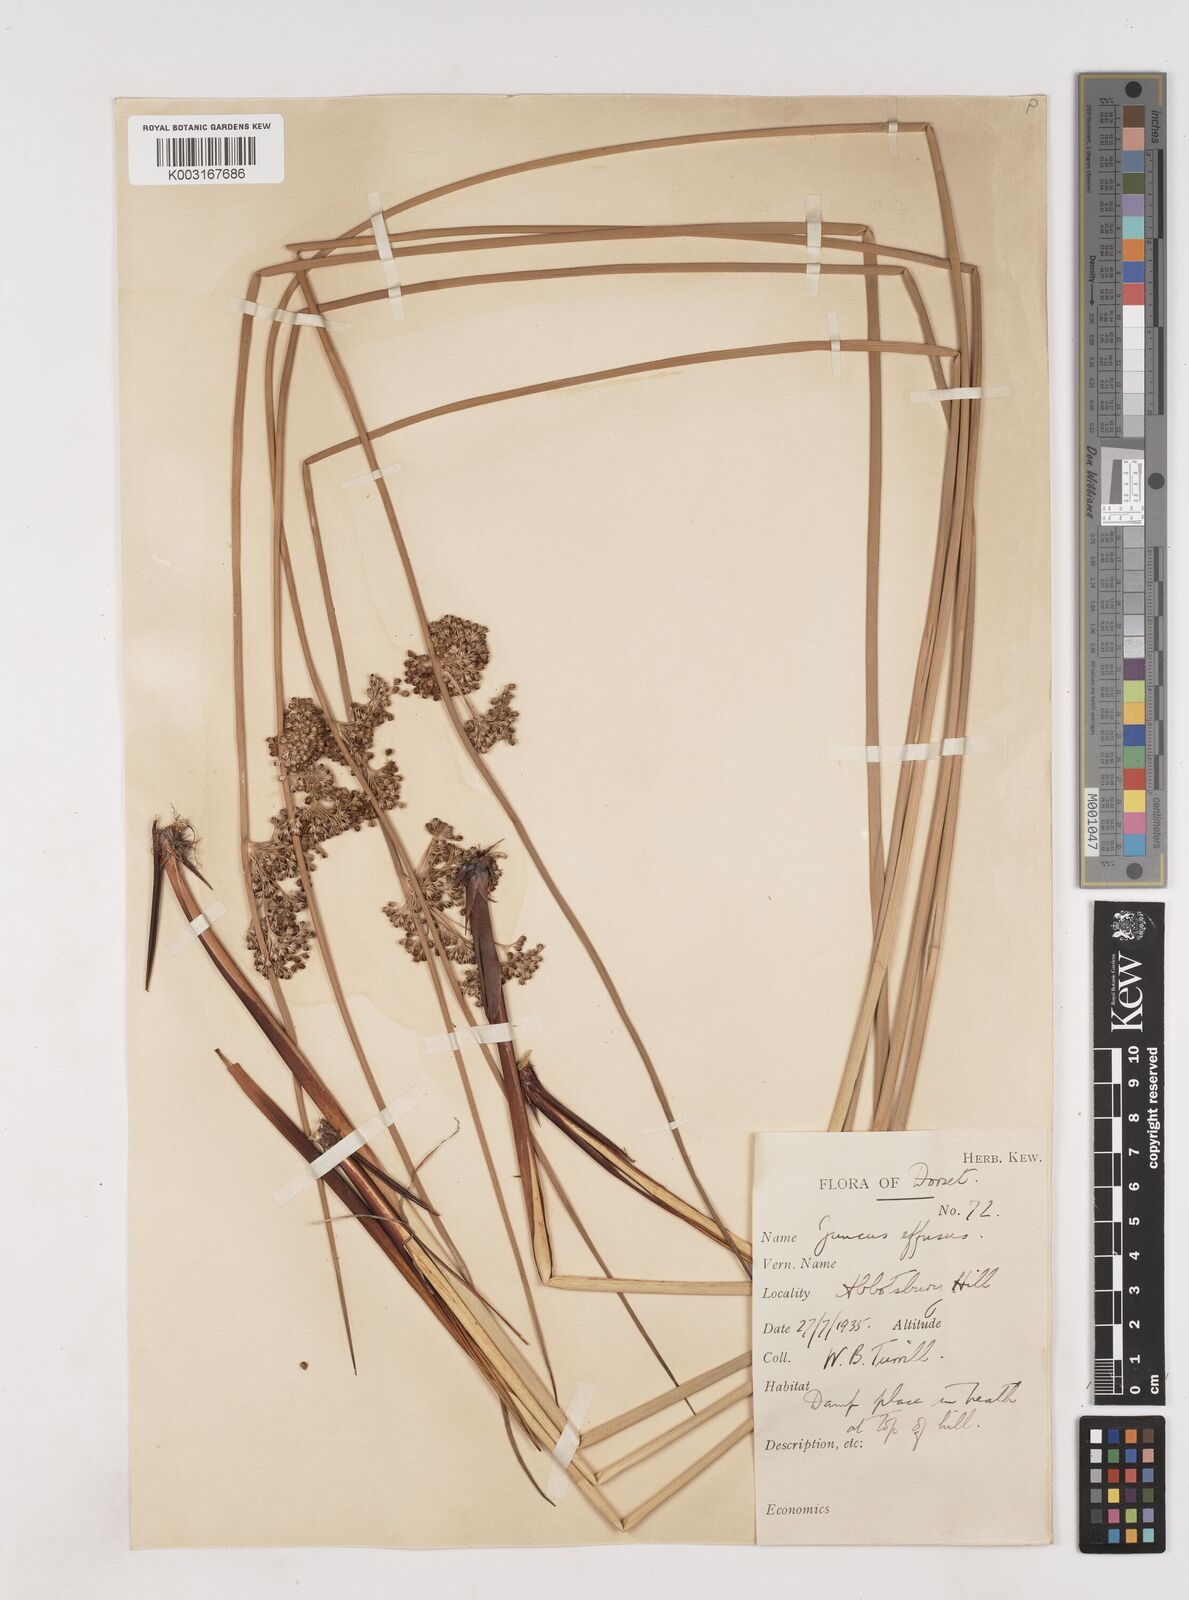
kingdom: Plantae
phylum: Tracheophyta
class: Liliopsida
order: Poales
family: Juncaceae
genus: Juncus
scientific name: Juncus effusus
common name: Soft rush
